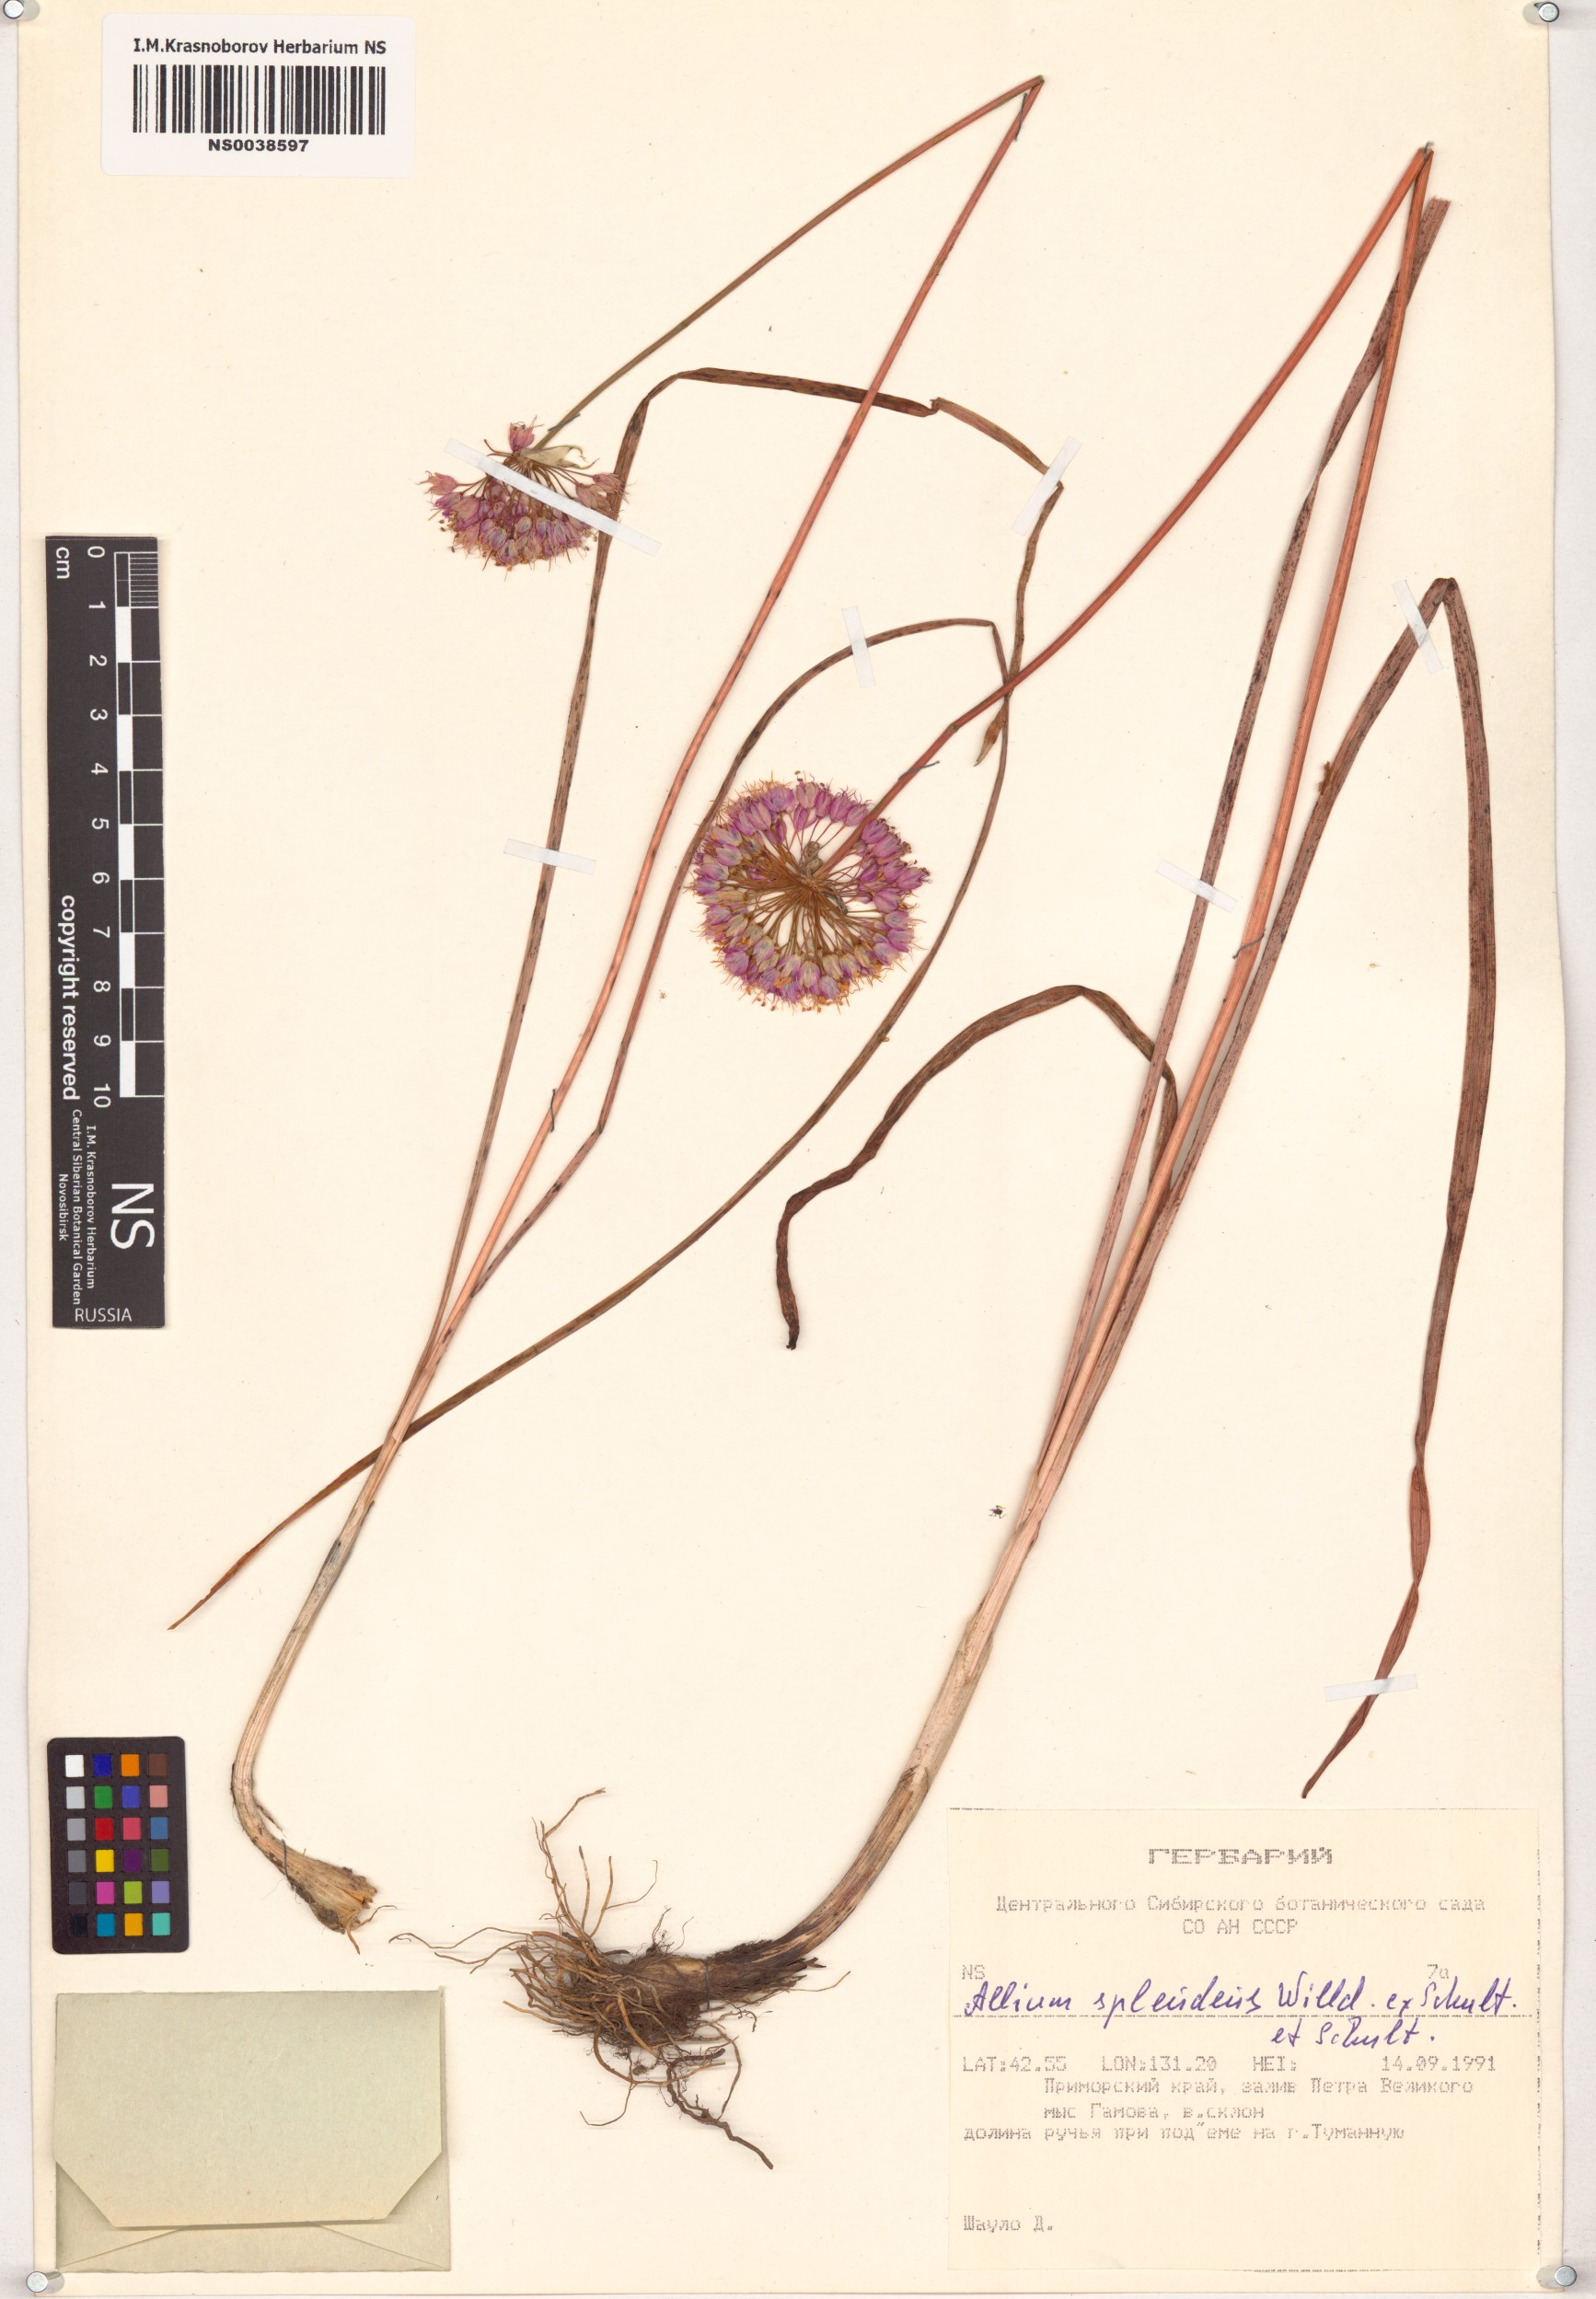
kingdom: Plantae
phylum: Tracheophyta
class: Liliopsida
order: Asparagales
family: Amaryllidaceae
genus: Allium
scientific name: Allium splendens
